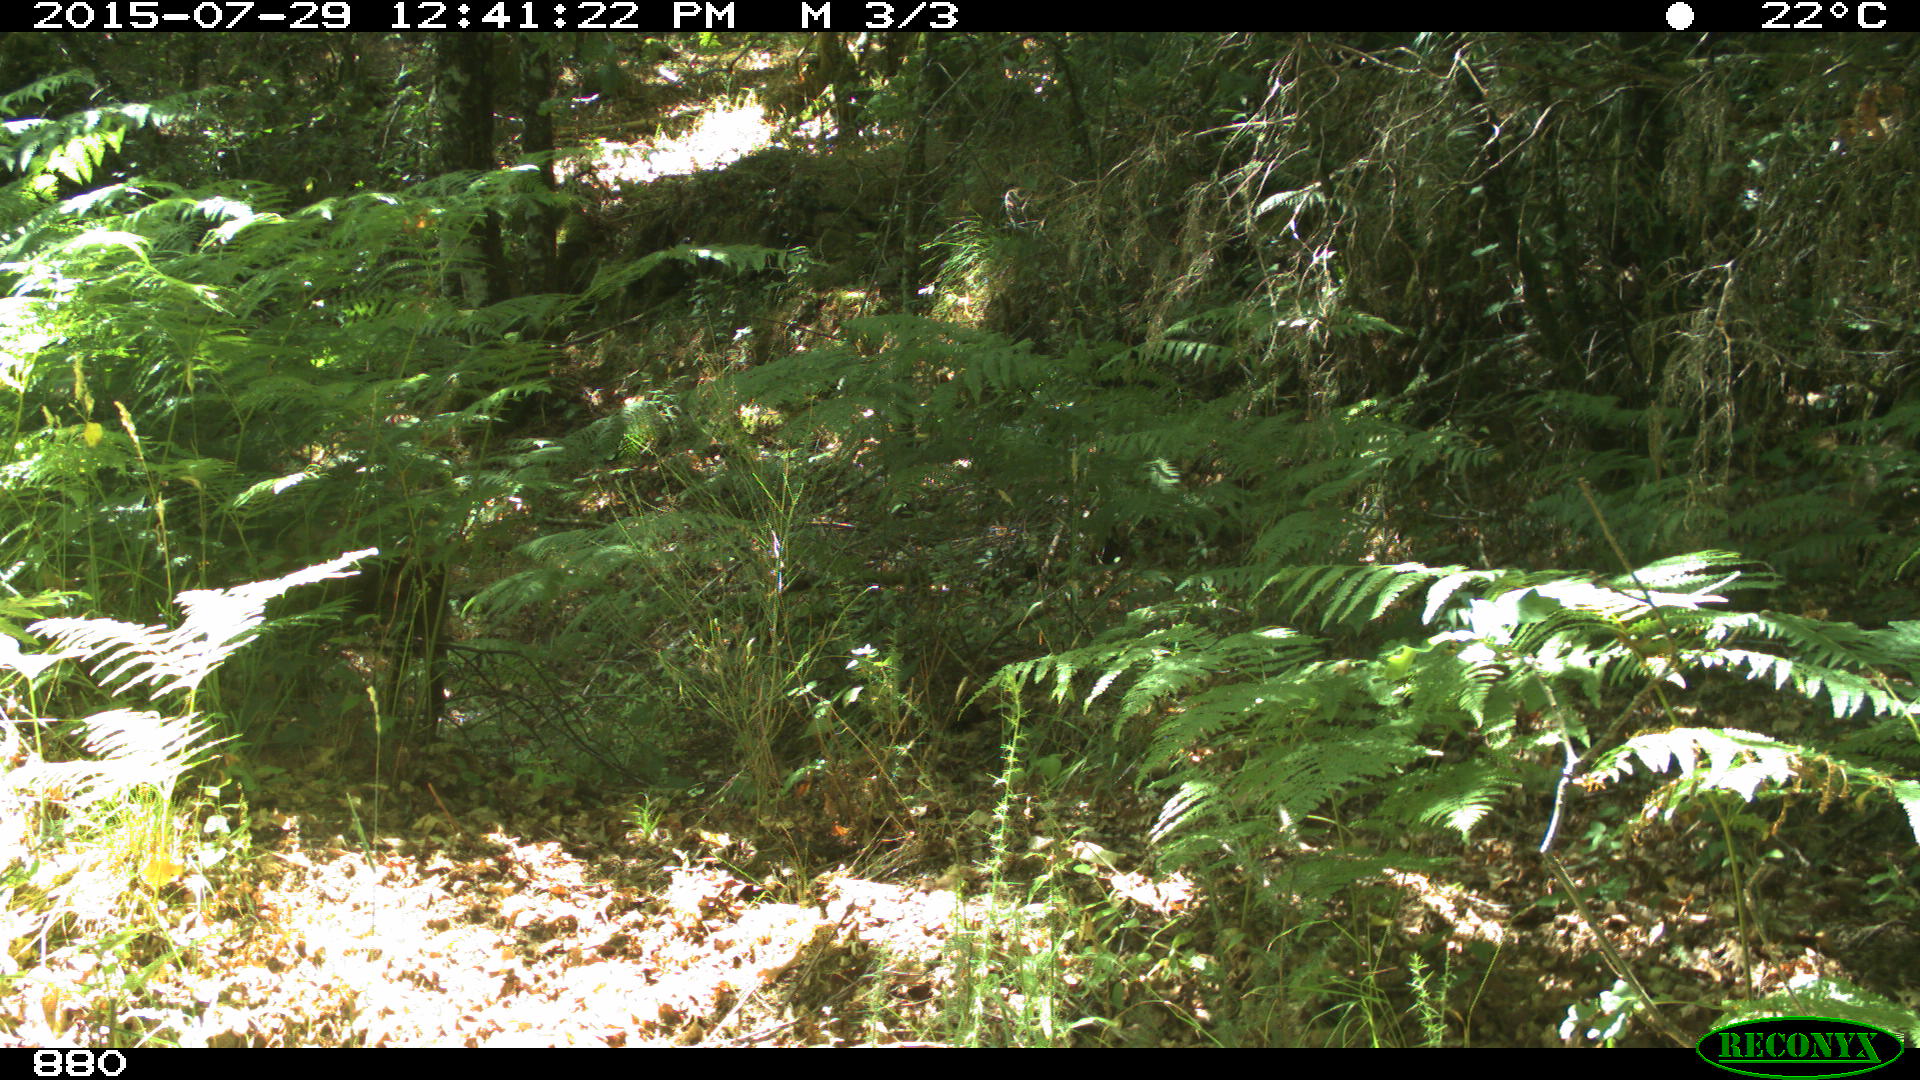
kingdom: Animalia
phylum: Chordata
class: Mammalia
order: Artiodactyla
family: Cervidae
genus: Capreolus
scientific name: Capreolus capreolus
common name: Western roe deer
